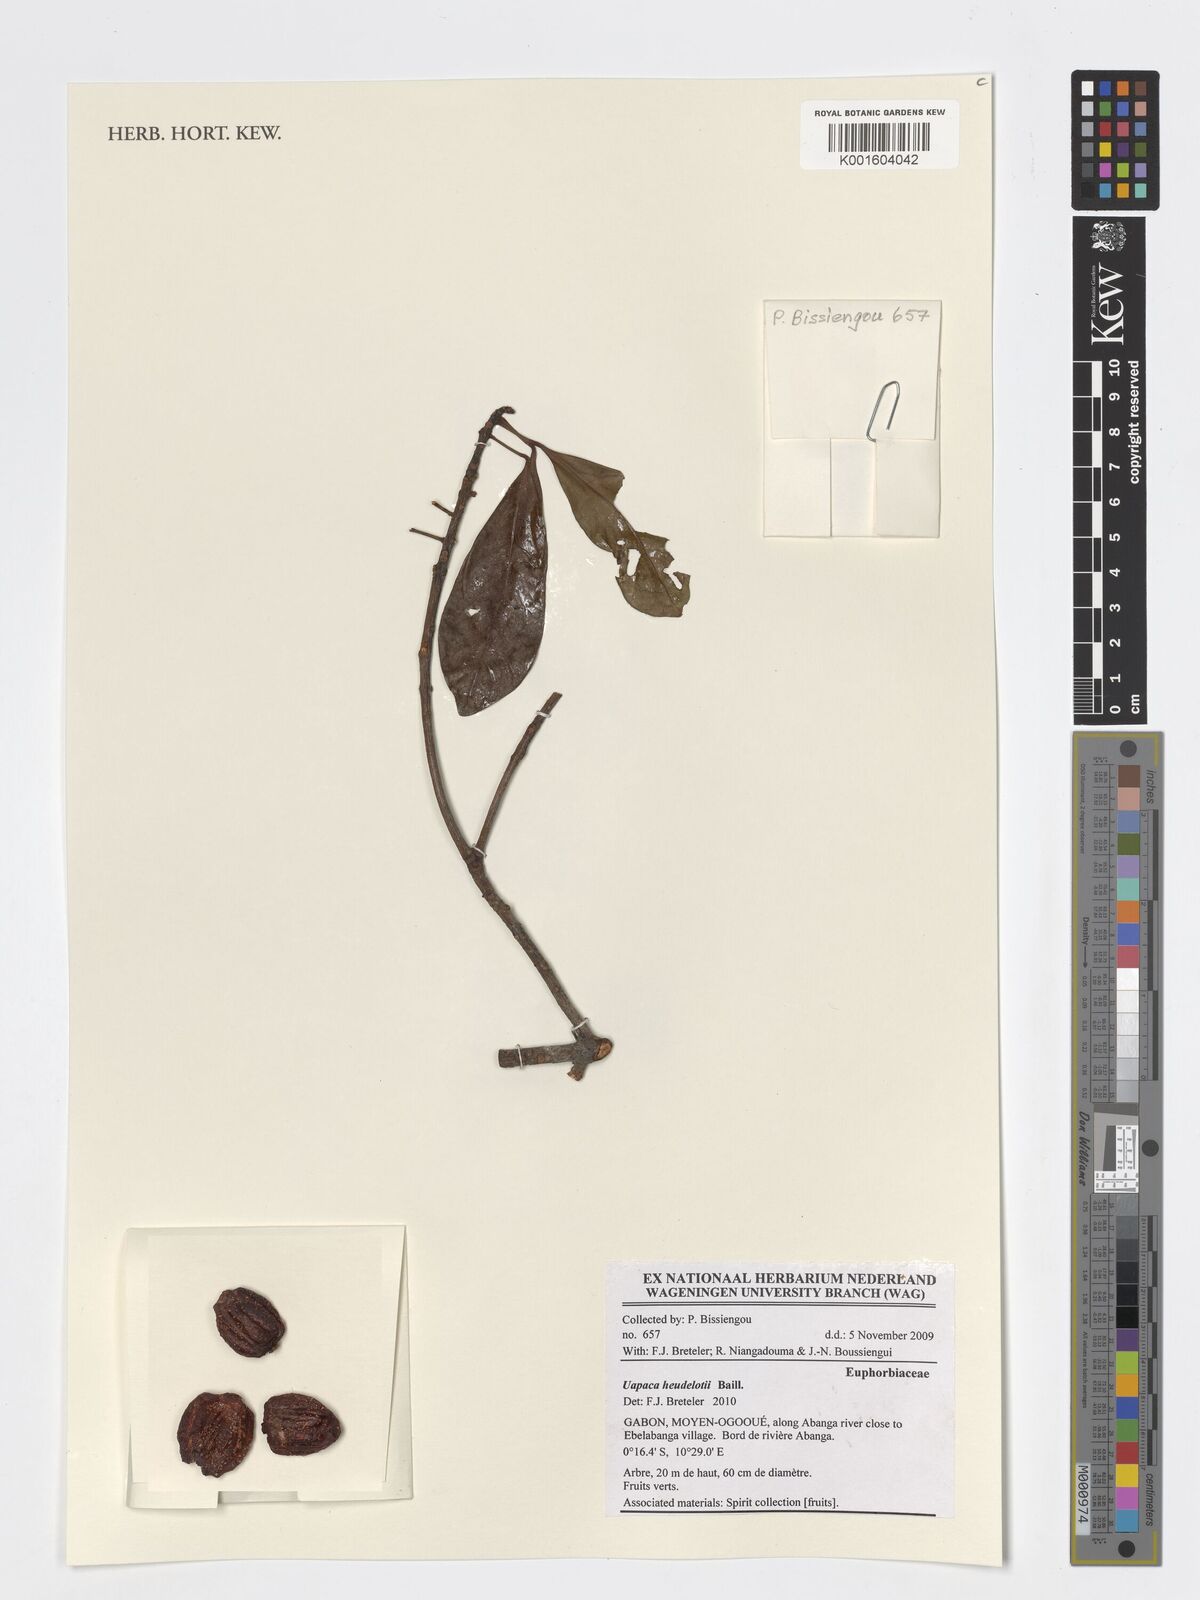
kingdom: Plantae
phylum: Tracheophyta
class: Magnoliopsida
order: Malpighiales
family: Phyllanthaceae
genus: Uapaca
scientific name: Uapaca heudelotii
